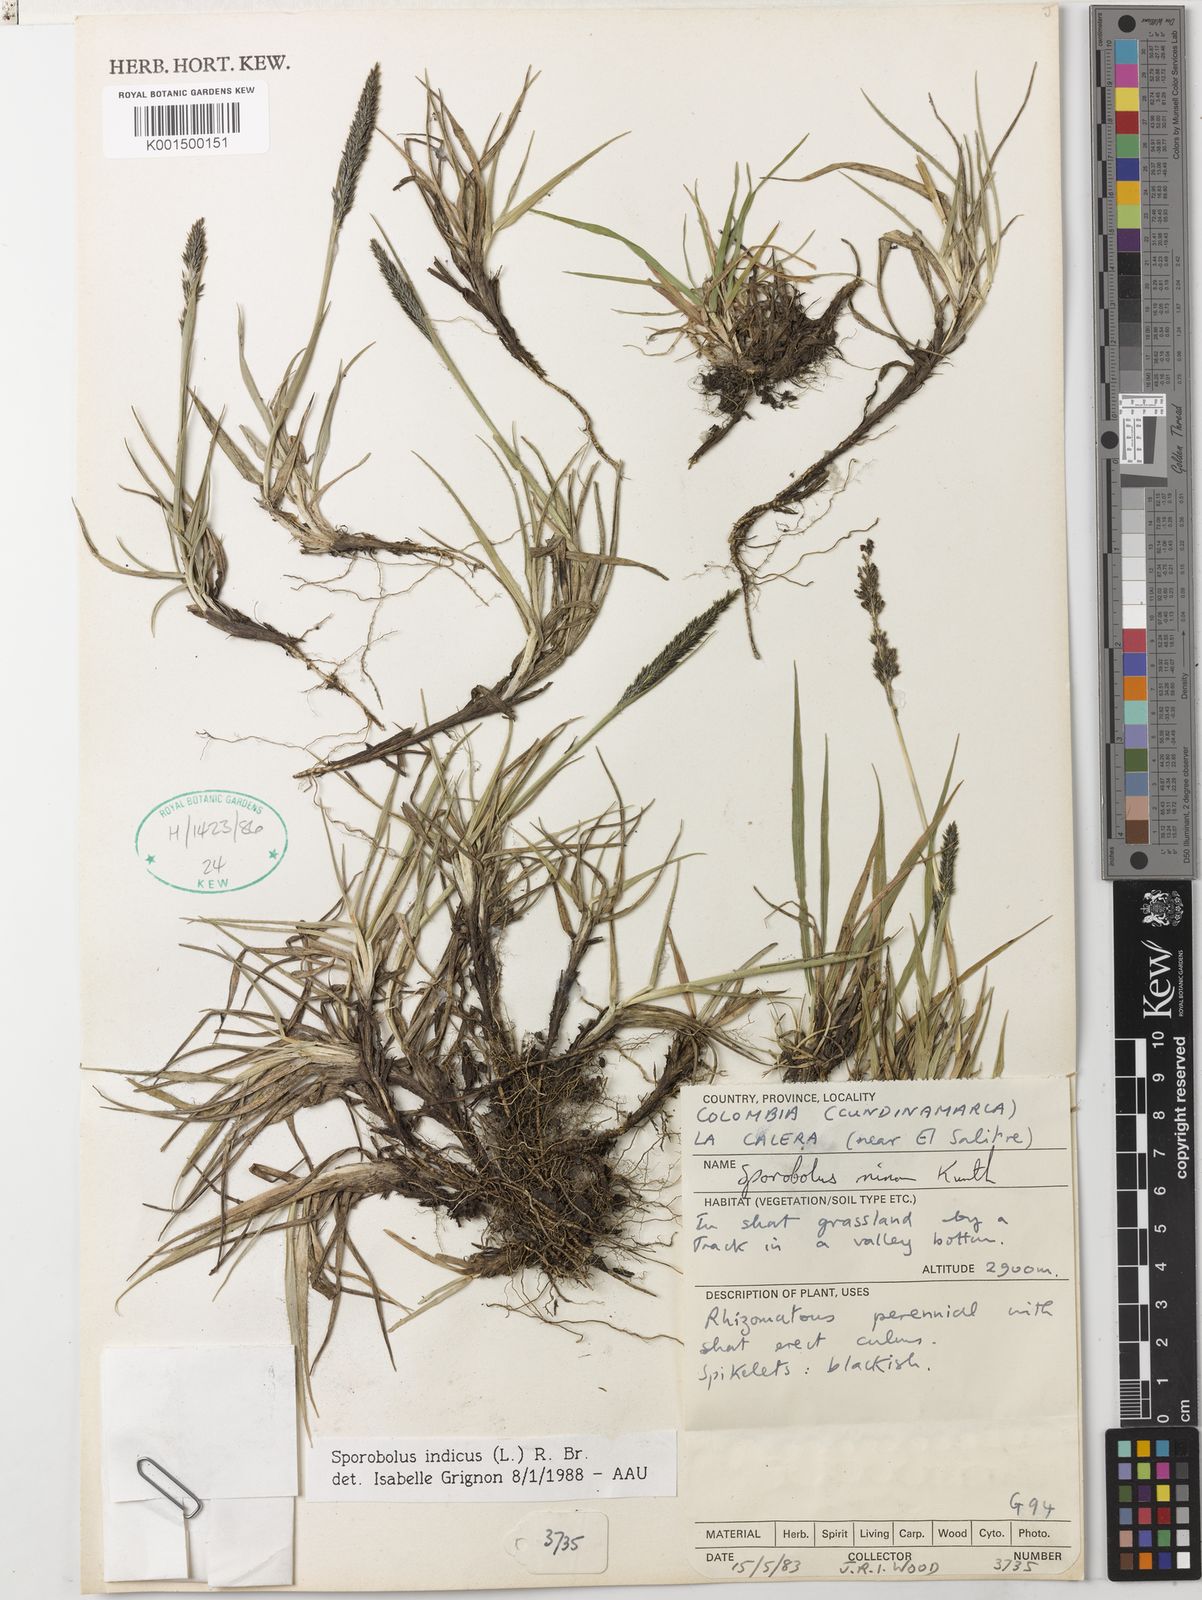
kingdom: Plantae
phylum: Tracheophyta
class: Liliopsida
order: Poales
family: Poaceae
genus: Sporobolus
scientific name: Sporobolus indicus
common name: Smut grass
